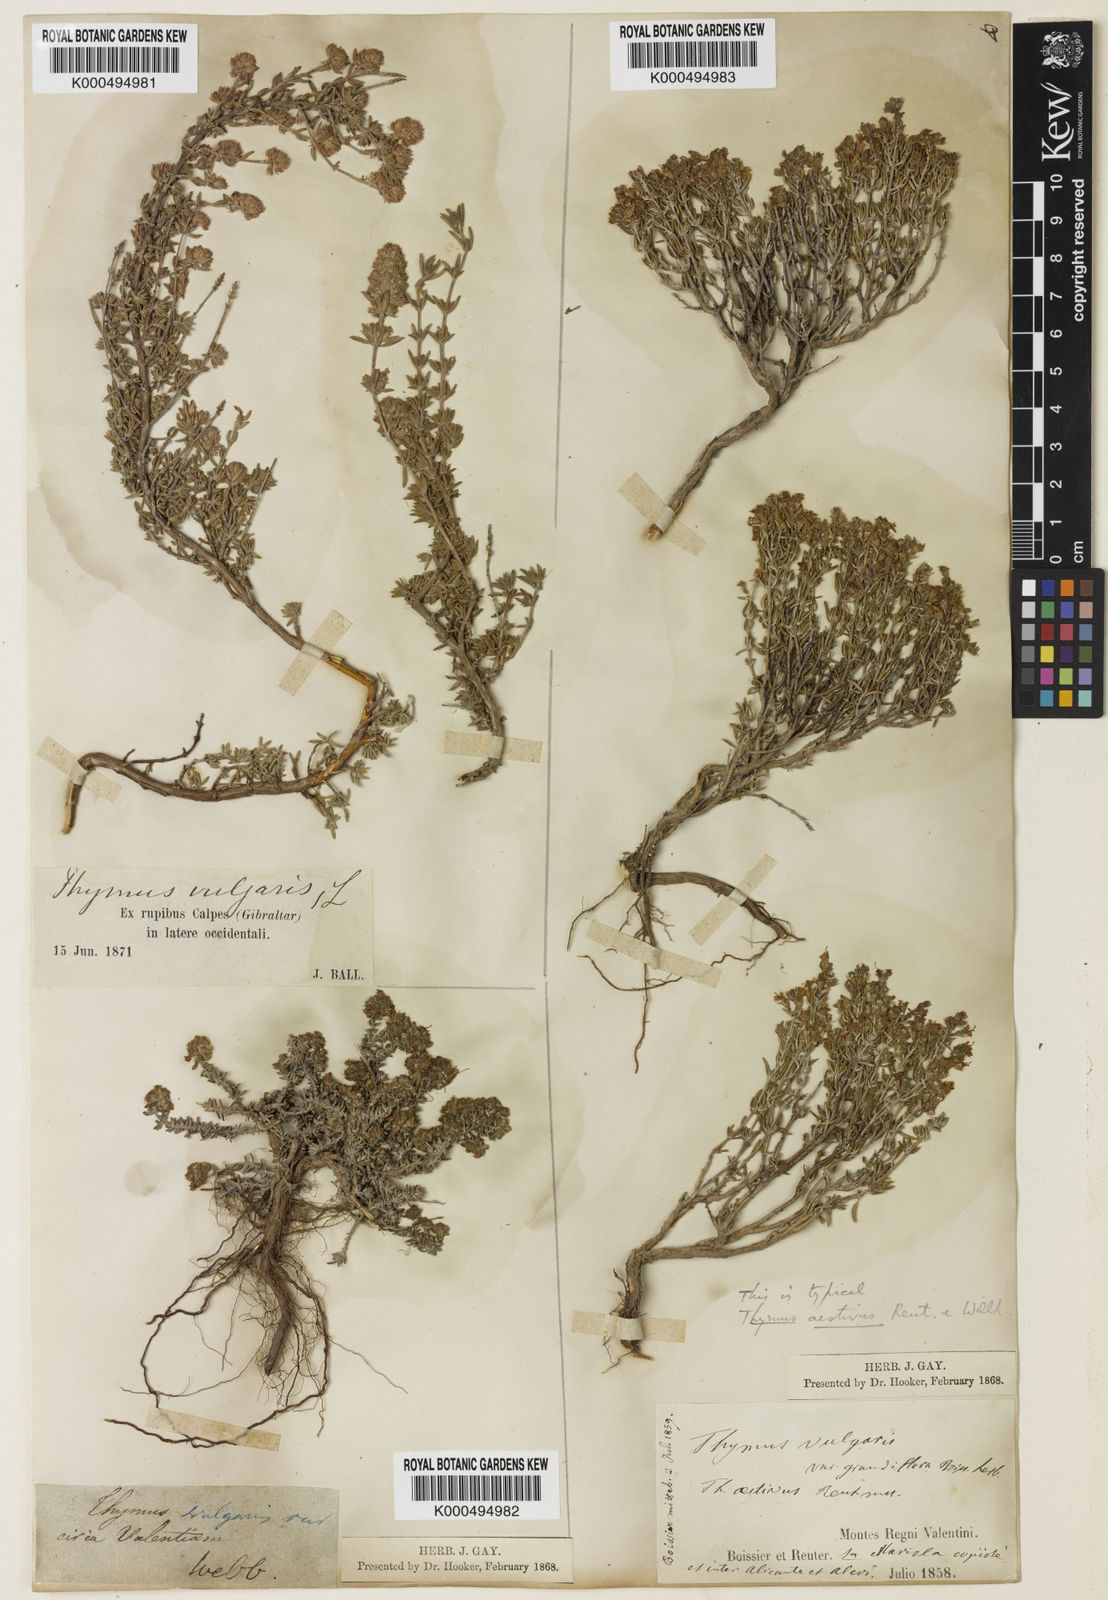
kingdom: Plantae
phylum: Tracheophyta
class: Magnoliopsida
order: Lamiales
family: Lamiaceae
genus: Thymus
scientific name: Thymus vulgaris
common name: Garden thyme
